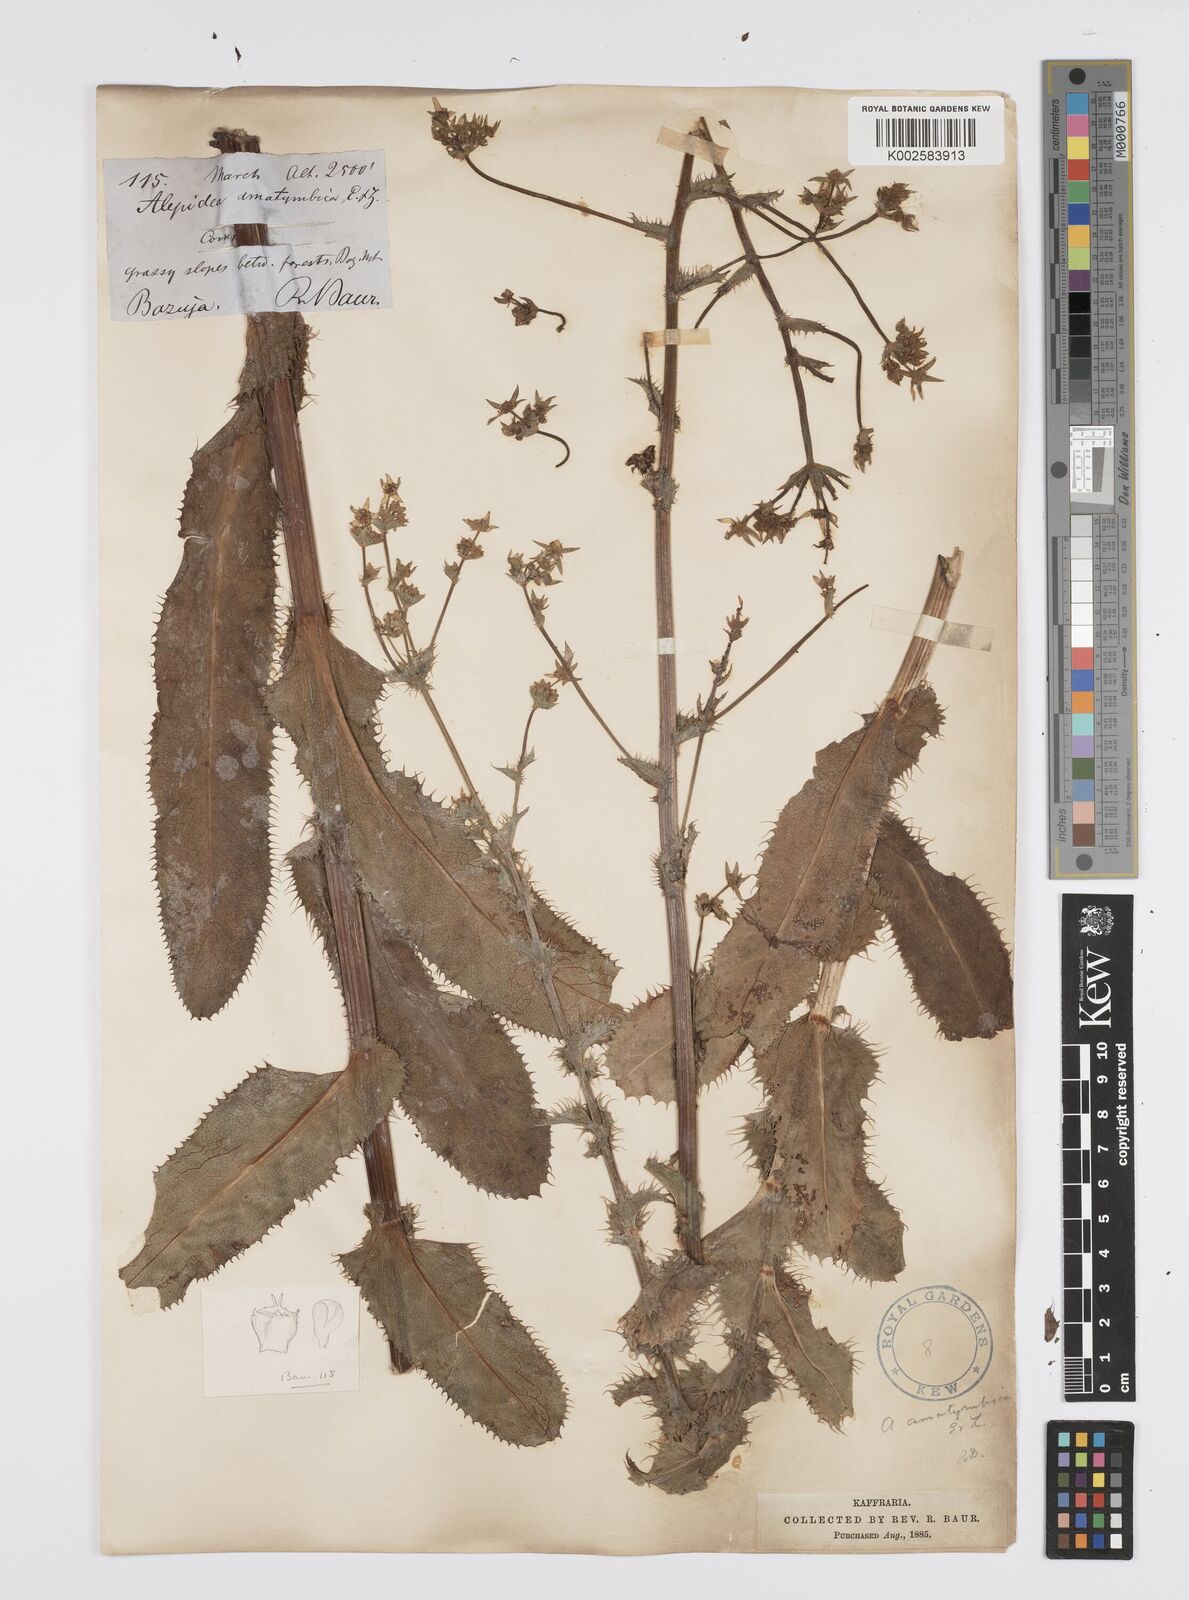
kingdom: Plantae
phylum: Tracheophyta
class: Magnoliopsida
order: Apiales
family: Apiaceae
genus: Alepidea
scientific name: Alepidea amatymbica
